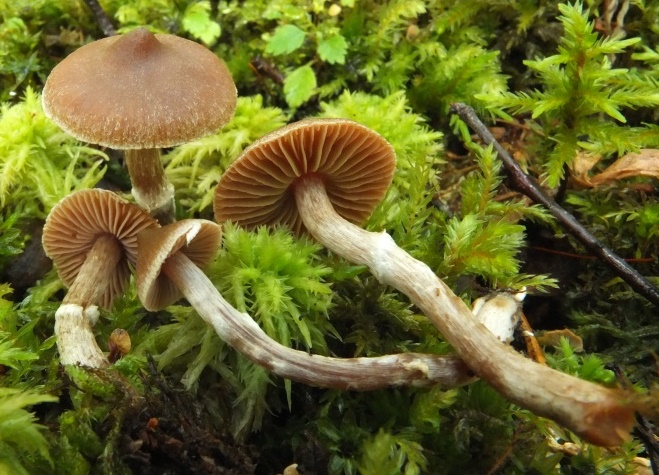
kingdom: Fungi
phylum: Basidiomycota
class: Agaricomycetes
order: Agaricales
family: Cortinariaceae
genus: Cortinarius
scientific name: Cortinarius
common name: pelargonie-slørhat
